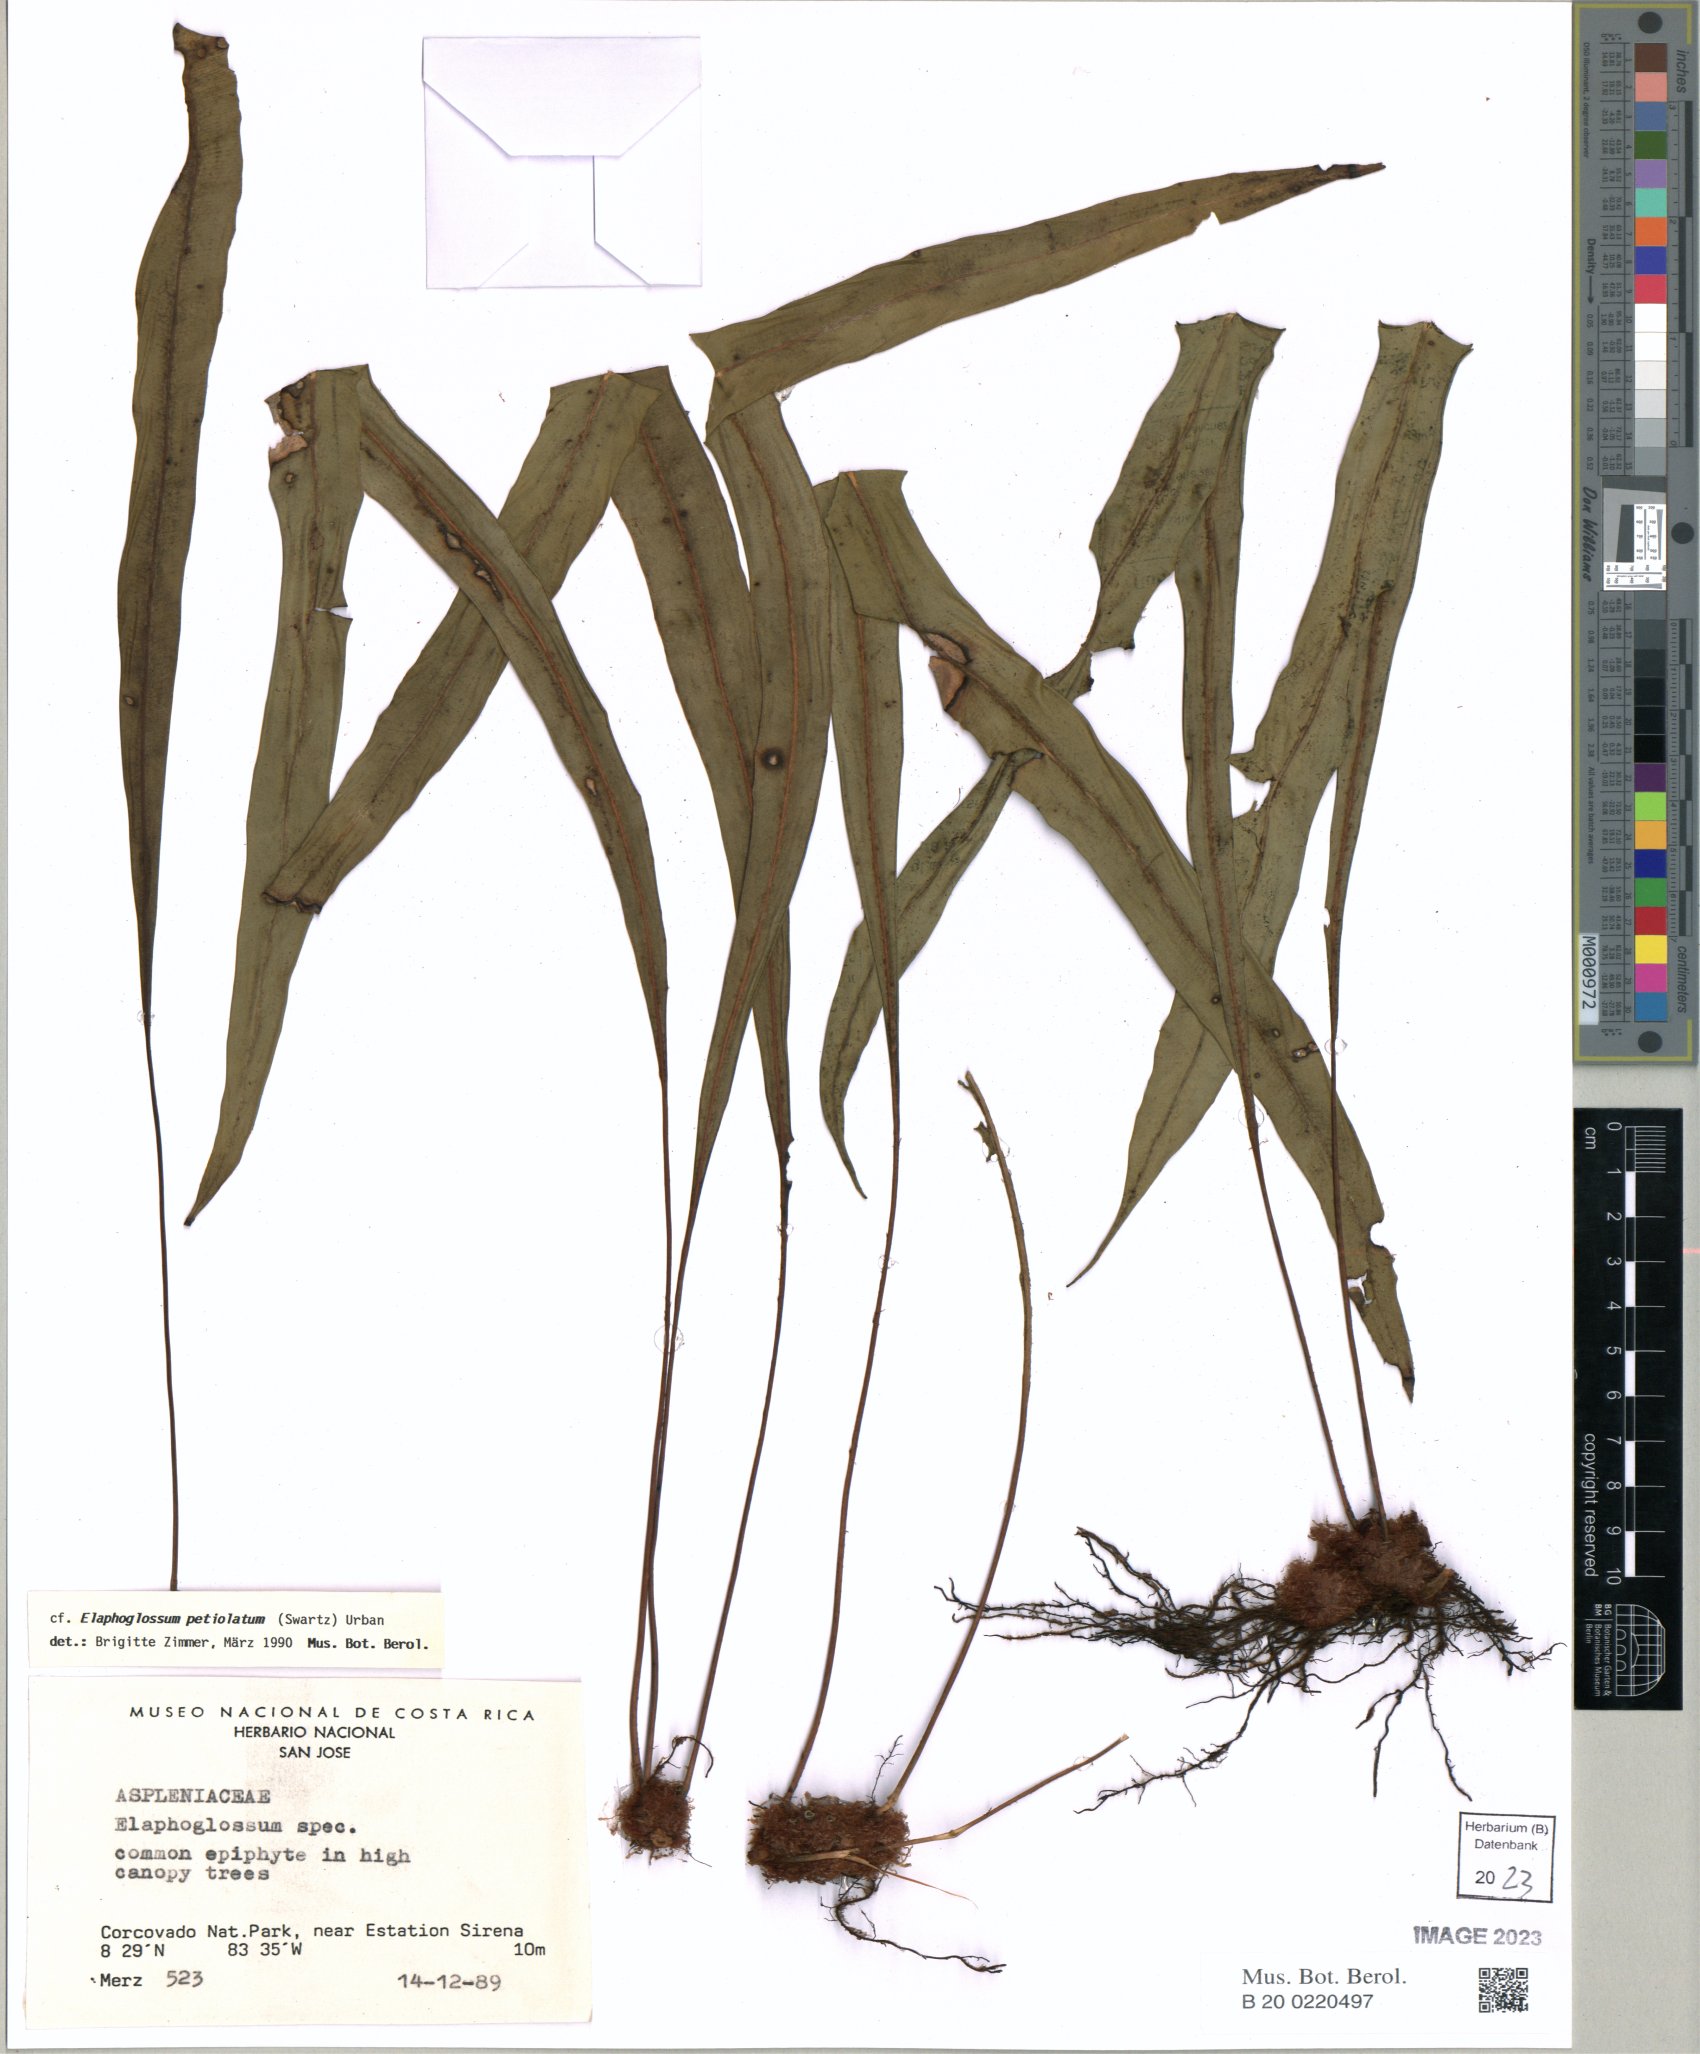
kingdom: Plantae
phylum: Tracheophyta
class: Polypodiopsida
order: Polypodiales
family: Dryopteridaceae
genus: Elaphoglossum
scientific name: Elaphoglossum petiolatum
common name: Graceful tonguefern
